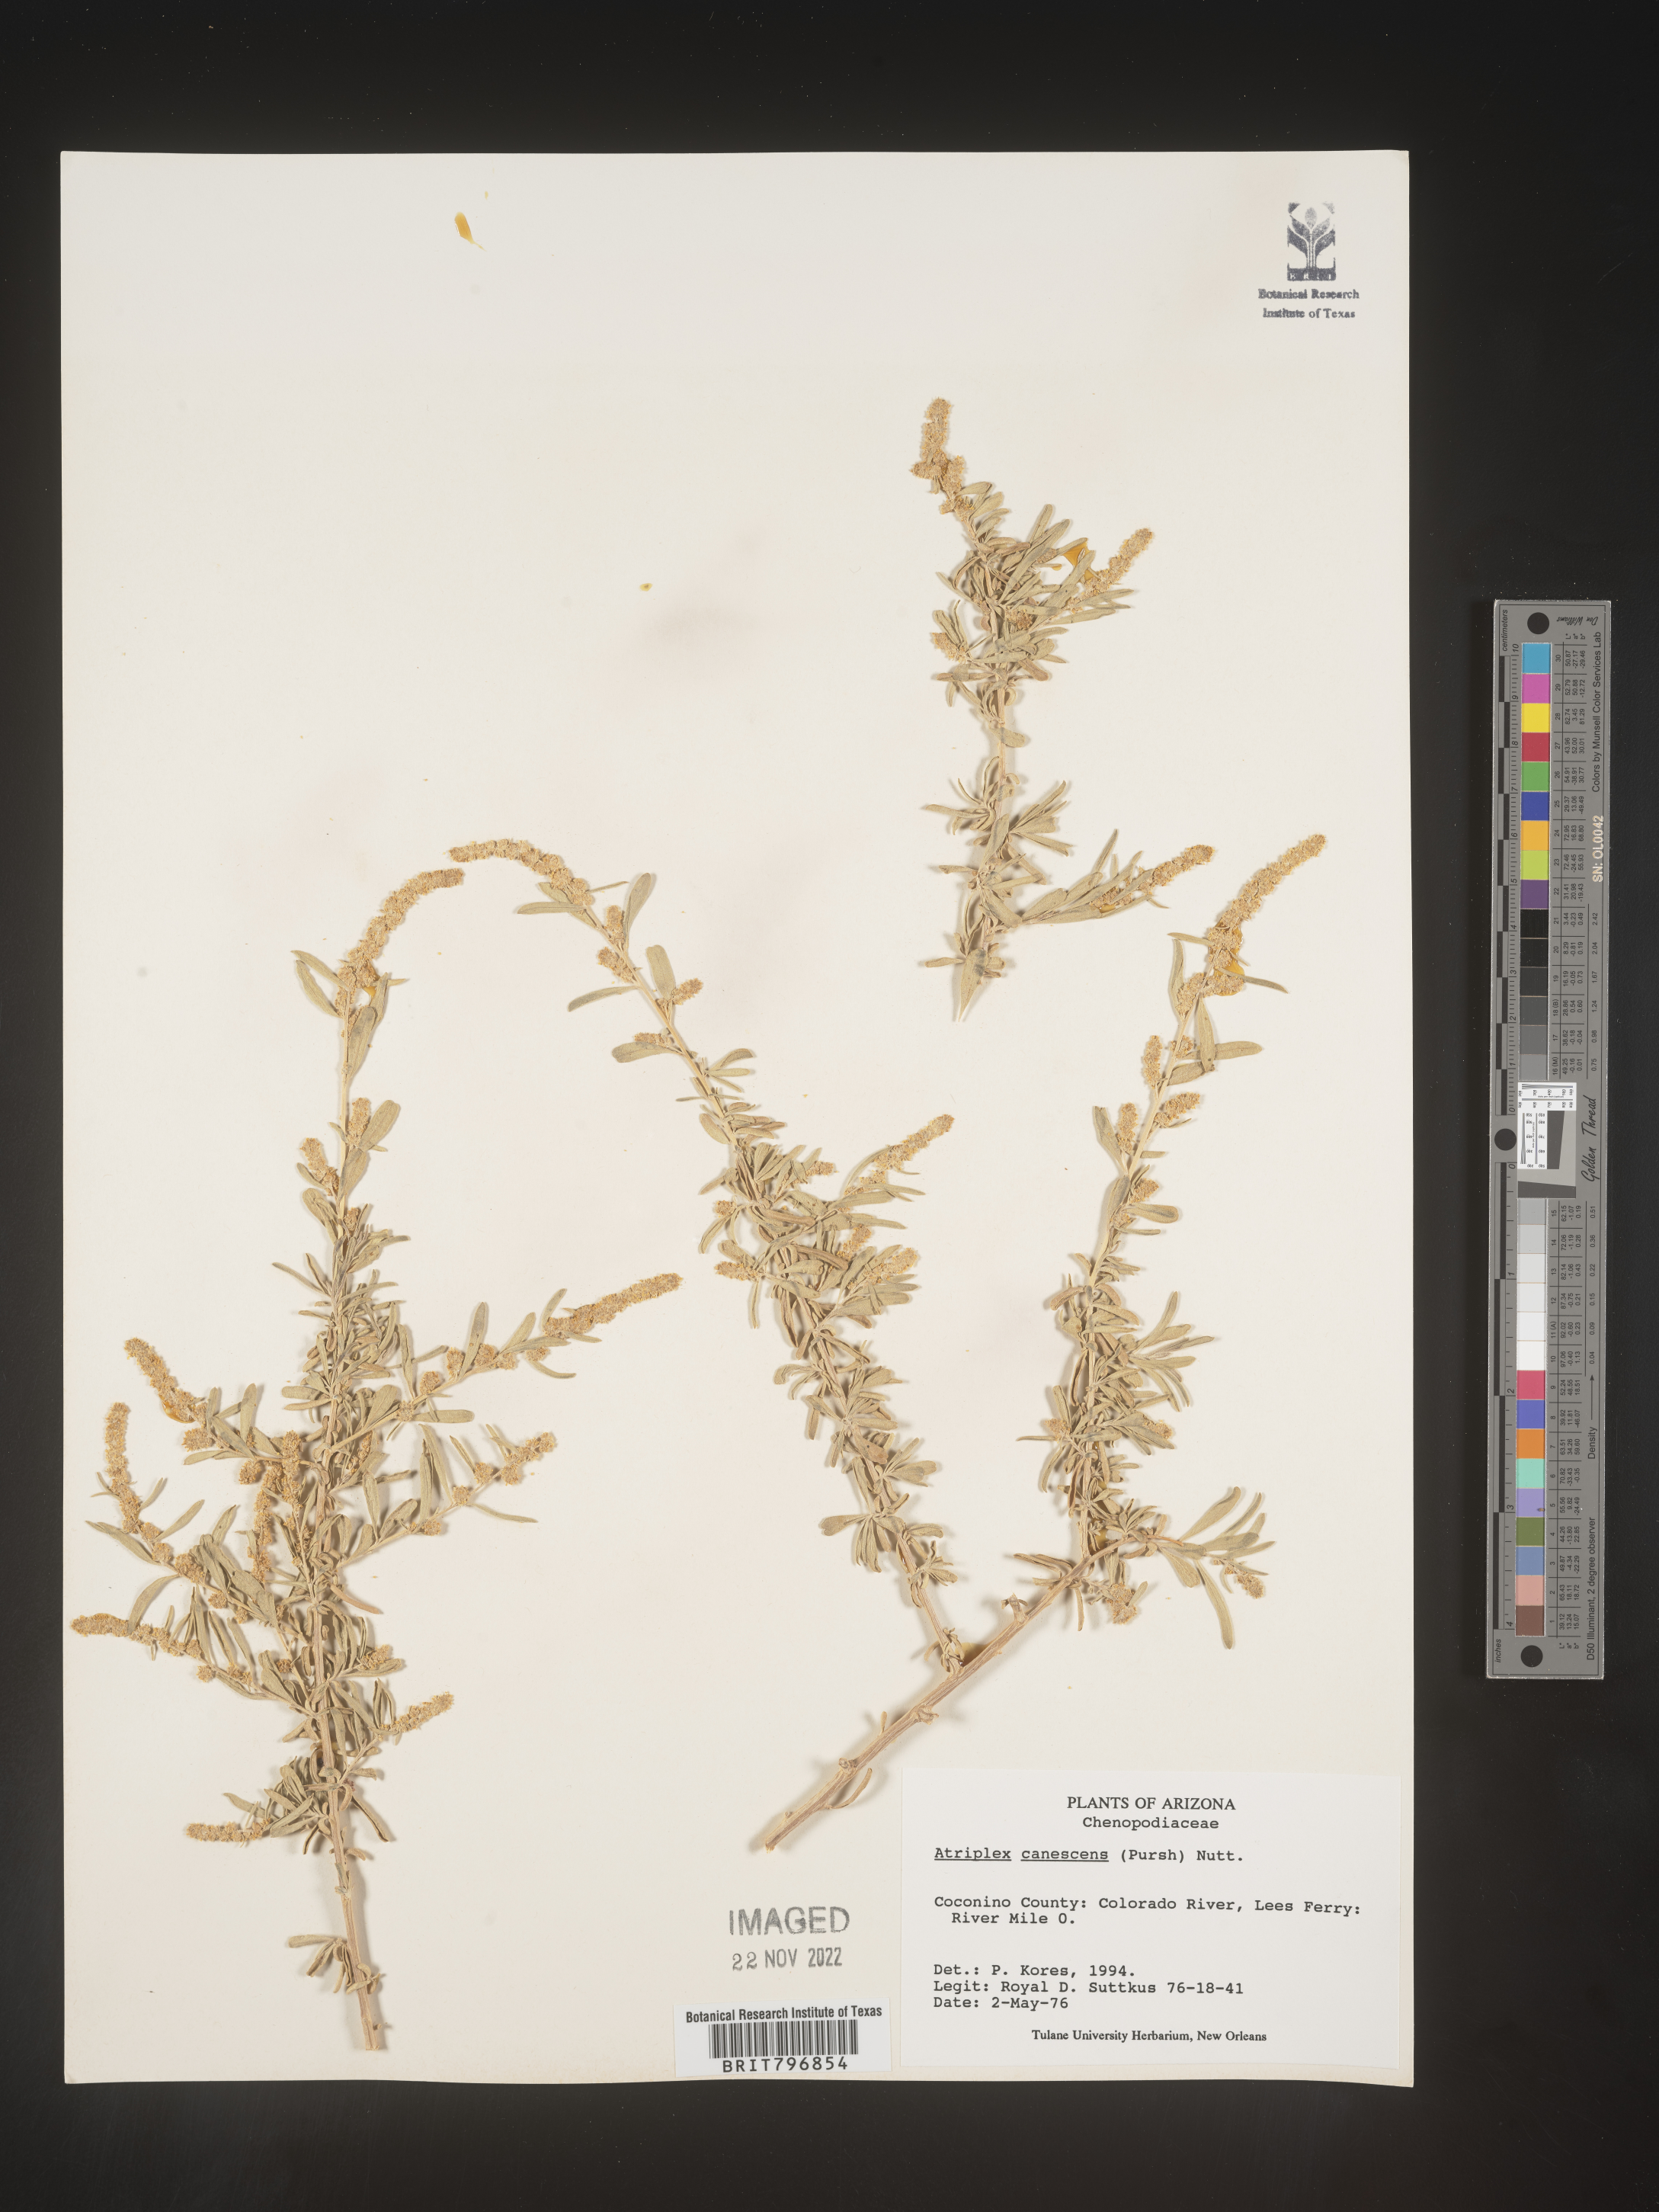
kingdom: Plantae
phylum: Tracheophyta
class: Magnoliopsida
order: Caryophyllales
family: Amaranthaceae
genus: Atriplex
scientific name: Atriplex canescens
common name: Four-wing saltbush
